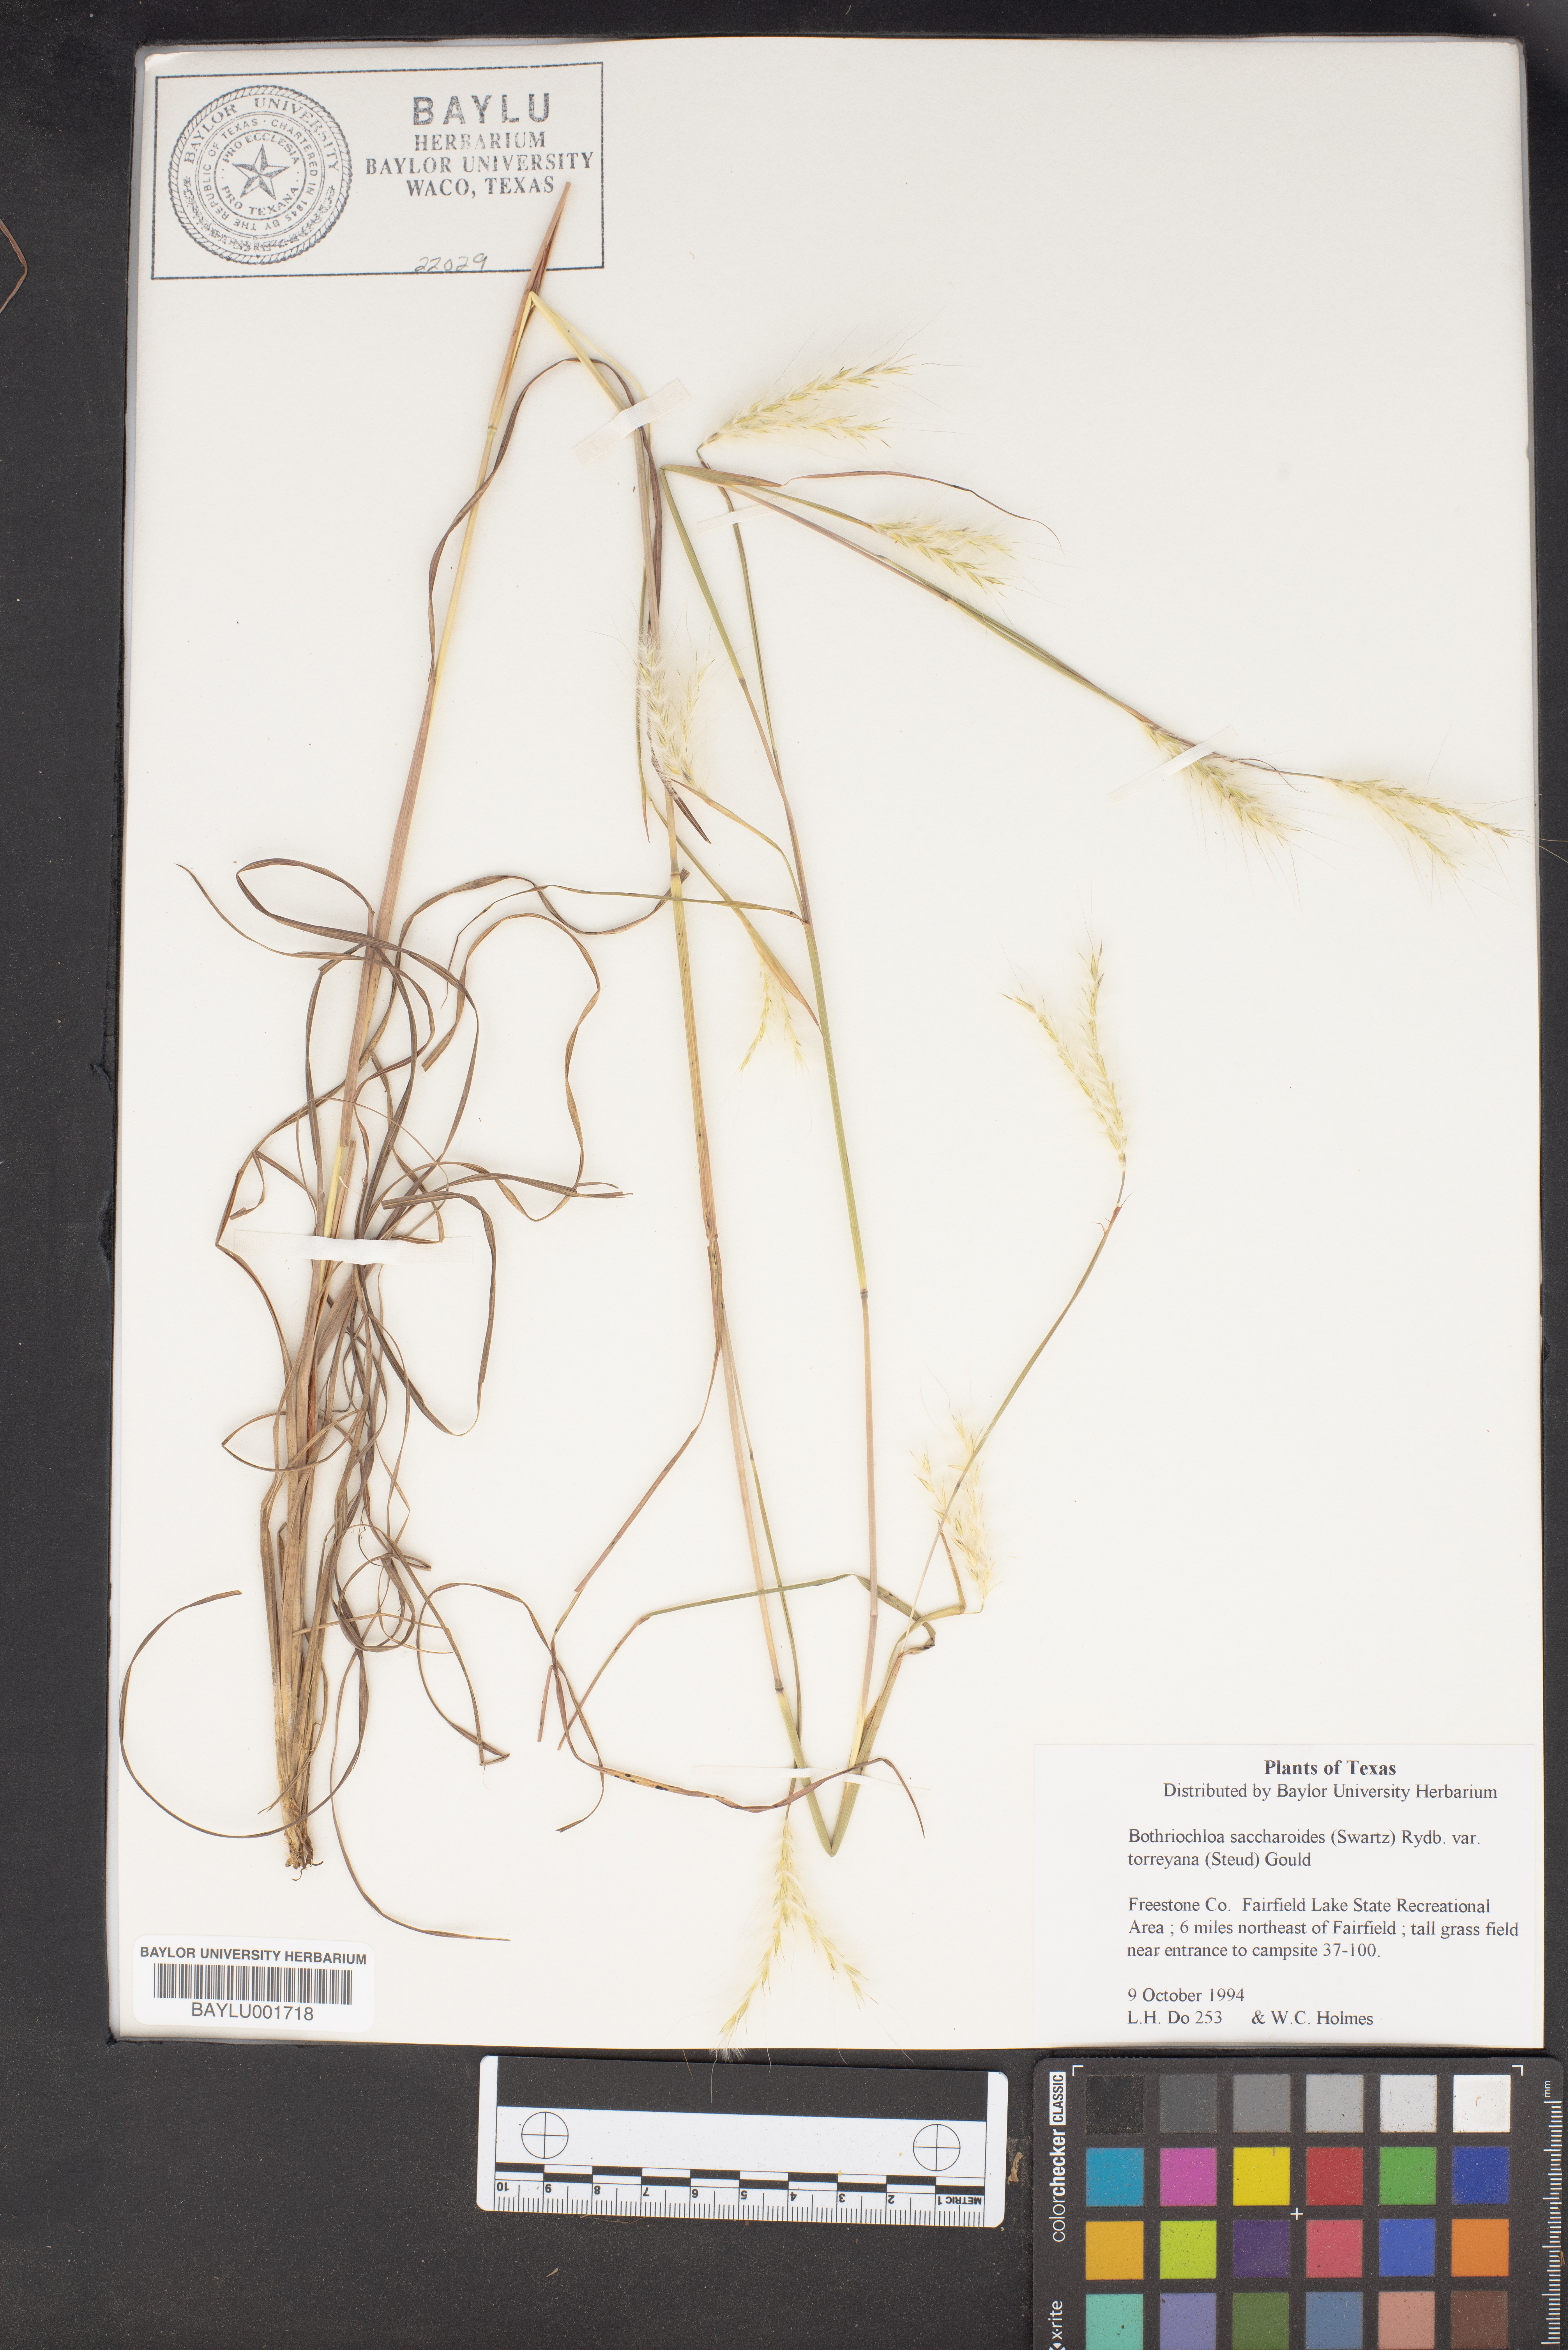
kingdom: Plantae
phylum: Tracheophyta
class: Liliopsida
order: Poales
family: Poaceae
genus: Bothriochloa
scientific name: Bothriochloa saccharoides
